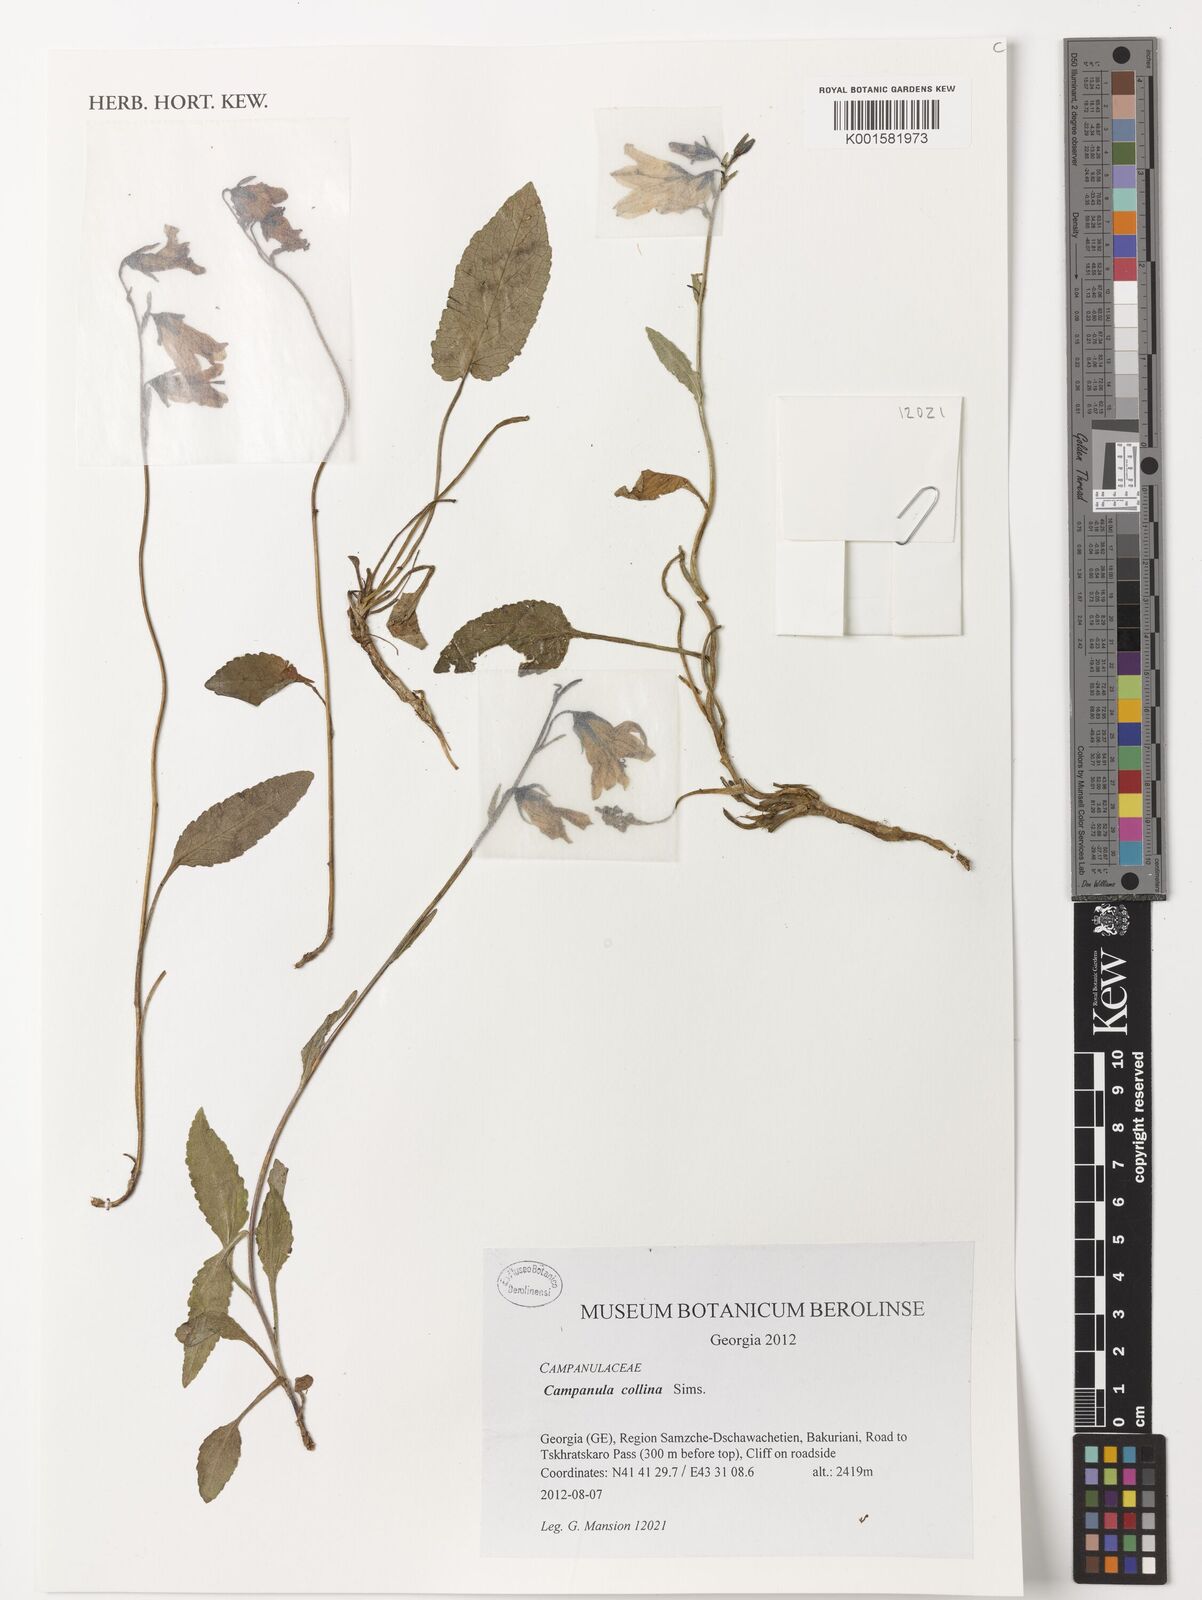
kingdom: Plantae
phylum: Tracheophyta
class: Magnoliopsida
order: Asterales
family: Campanulaceae
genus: Campanula
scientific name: Campanula collina
